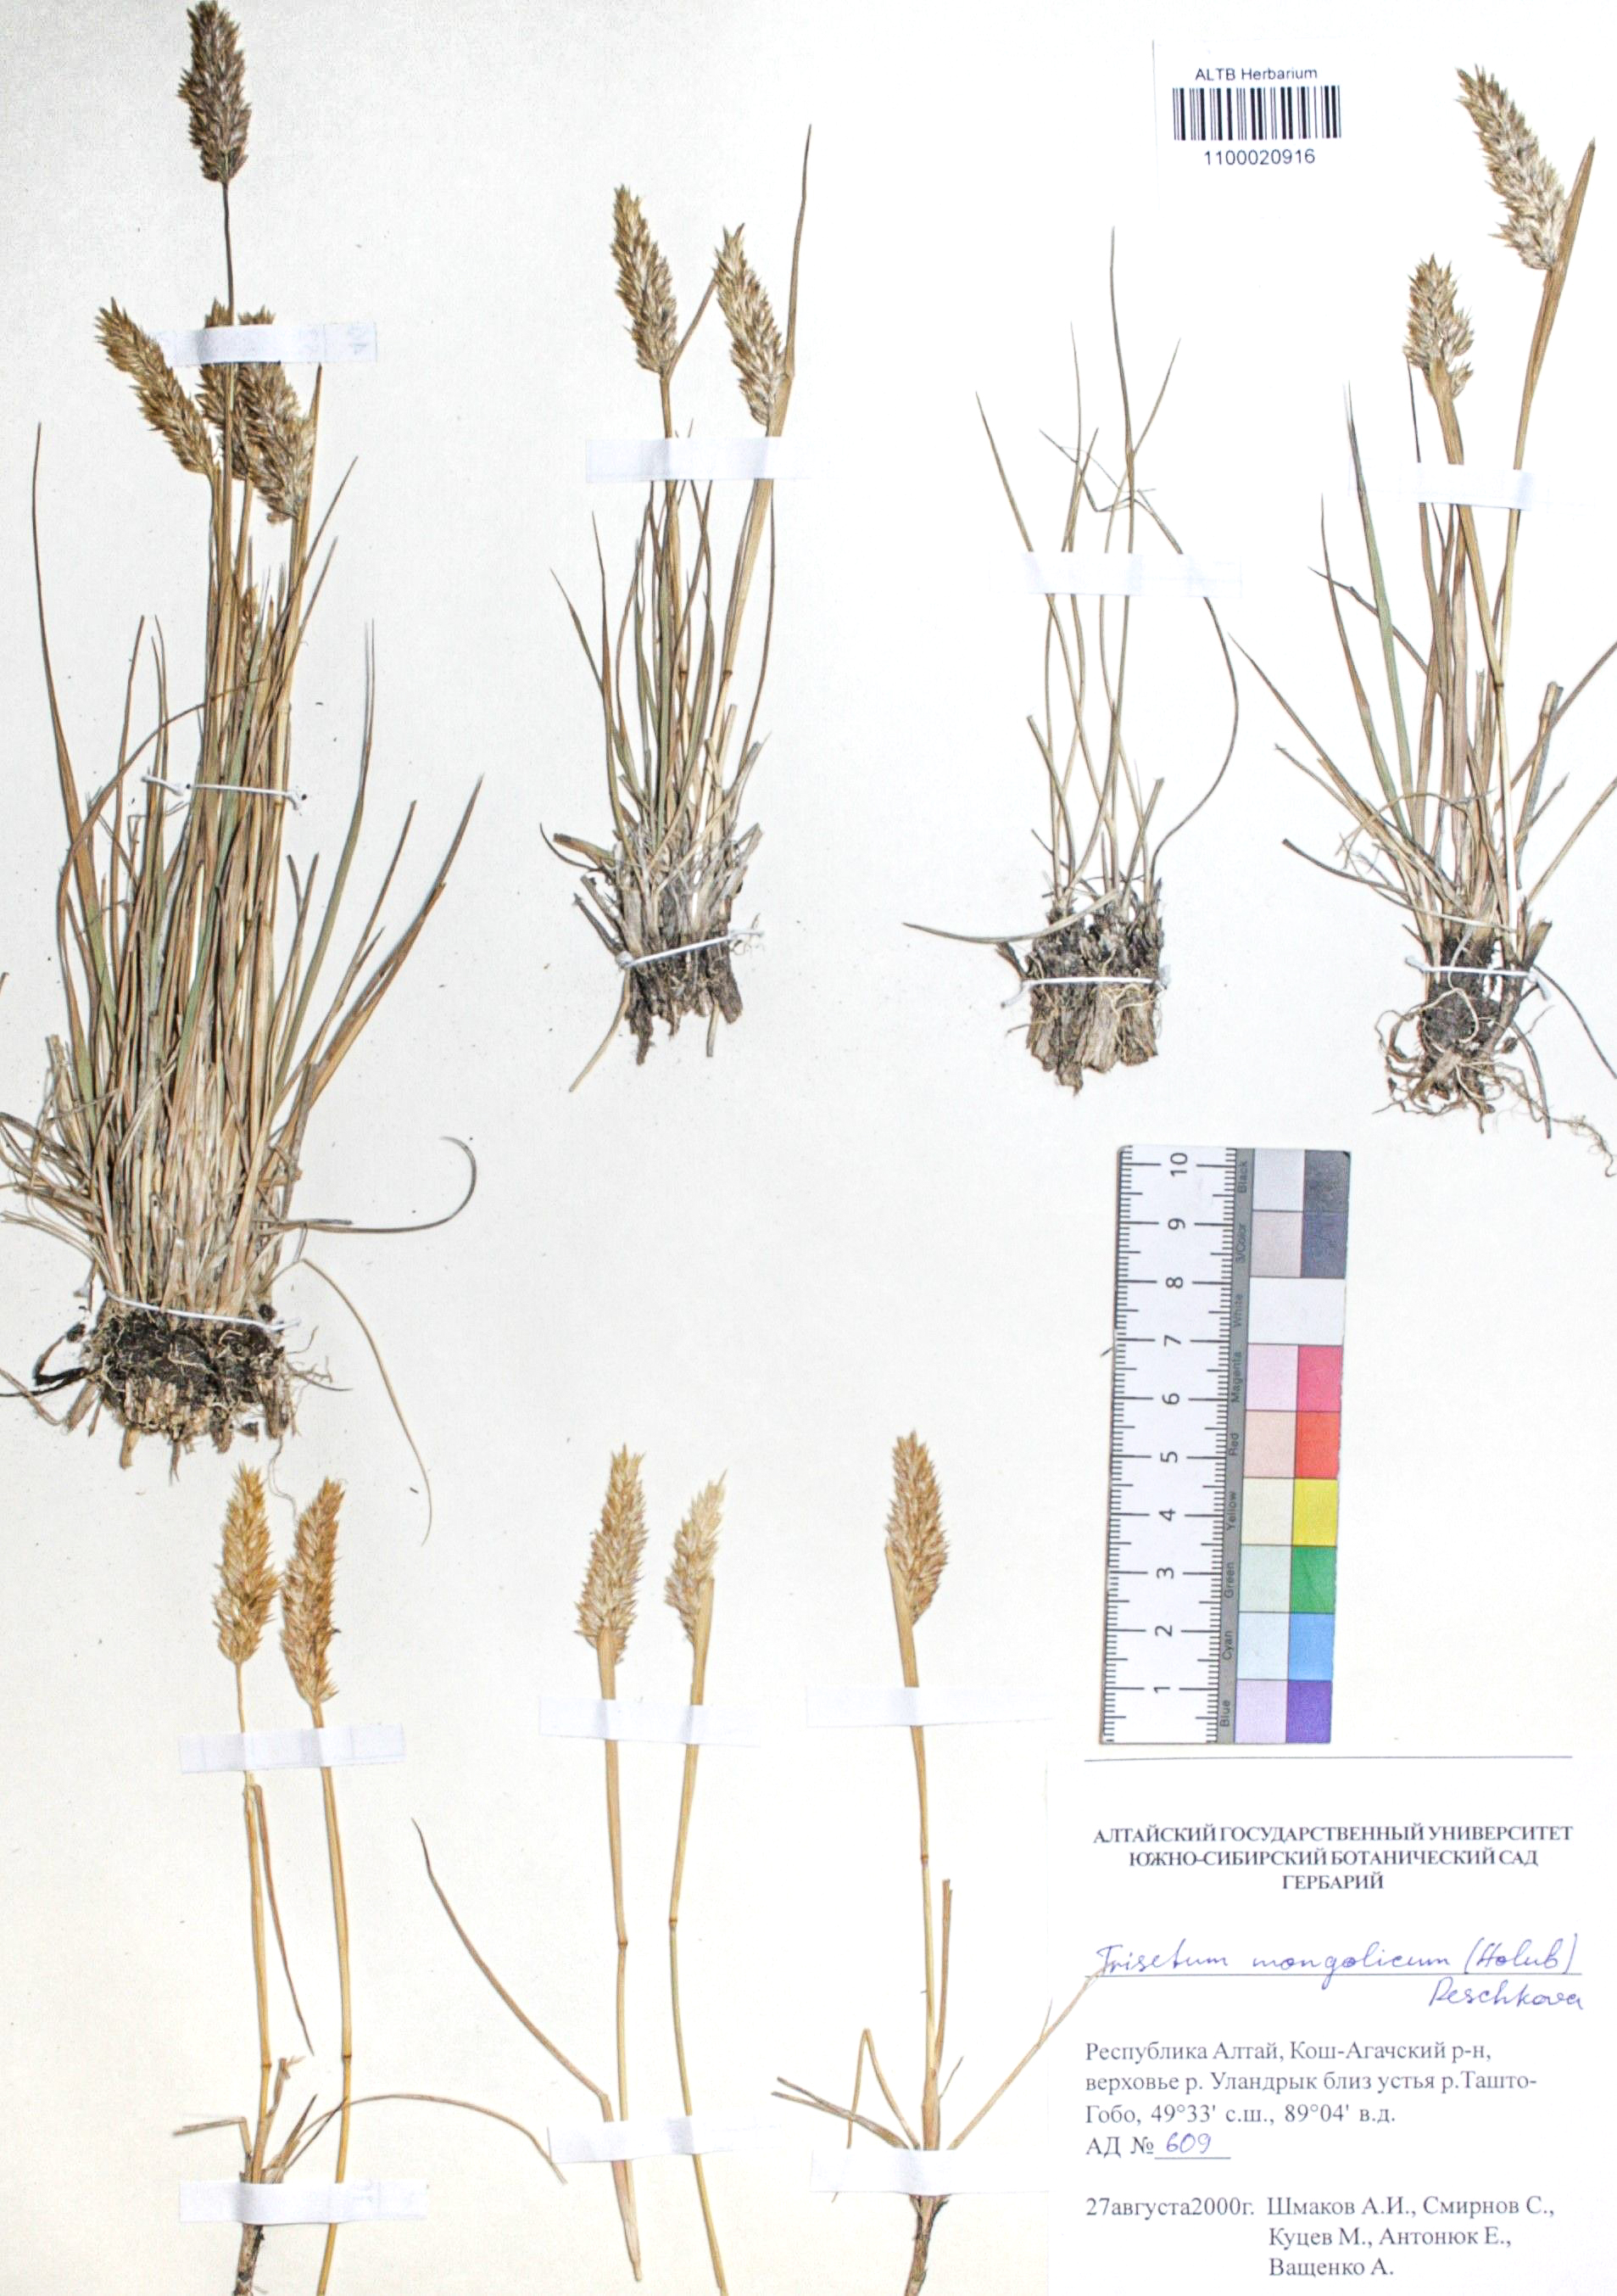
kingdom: Plantae
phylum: Tracheophyta
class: Liliopsida
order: Poales
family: Poaceae
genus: Koeleria
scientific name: Koeleria spicata
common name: Mountain trisetum
